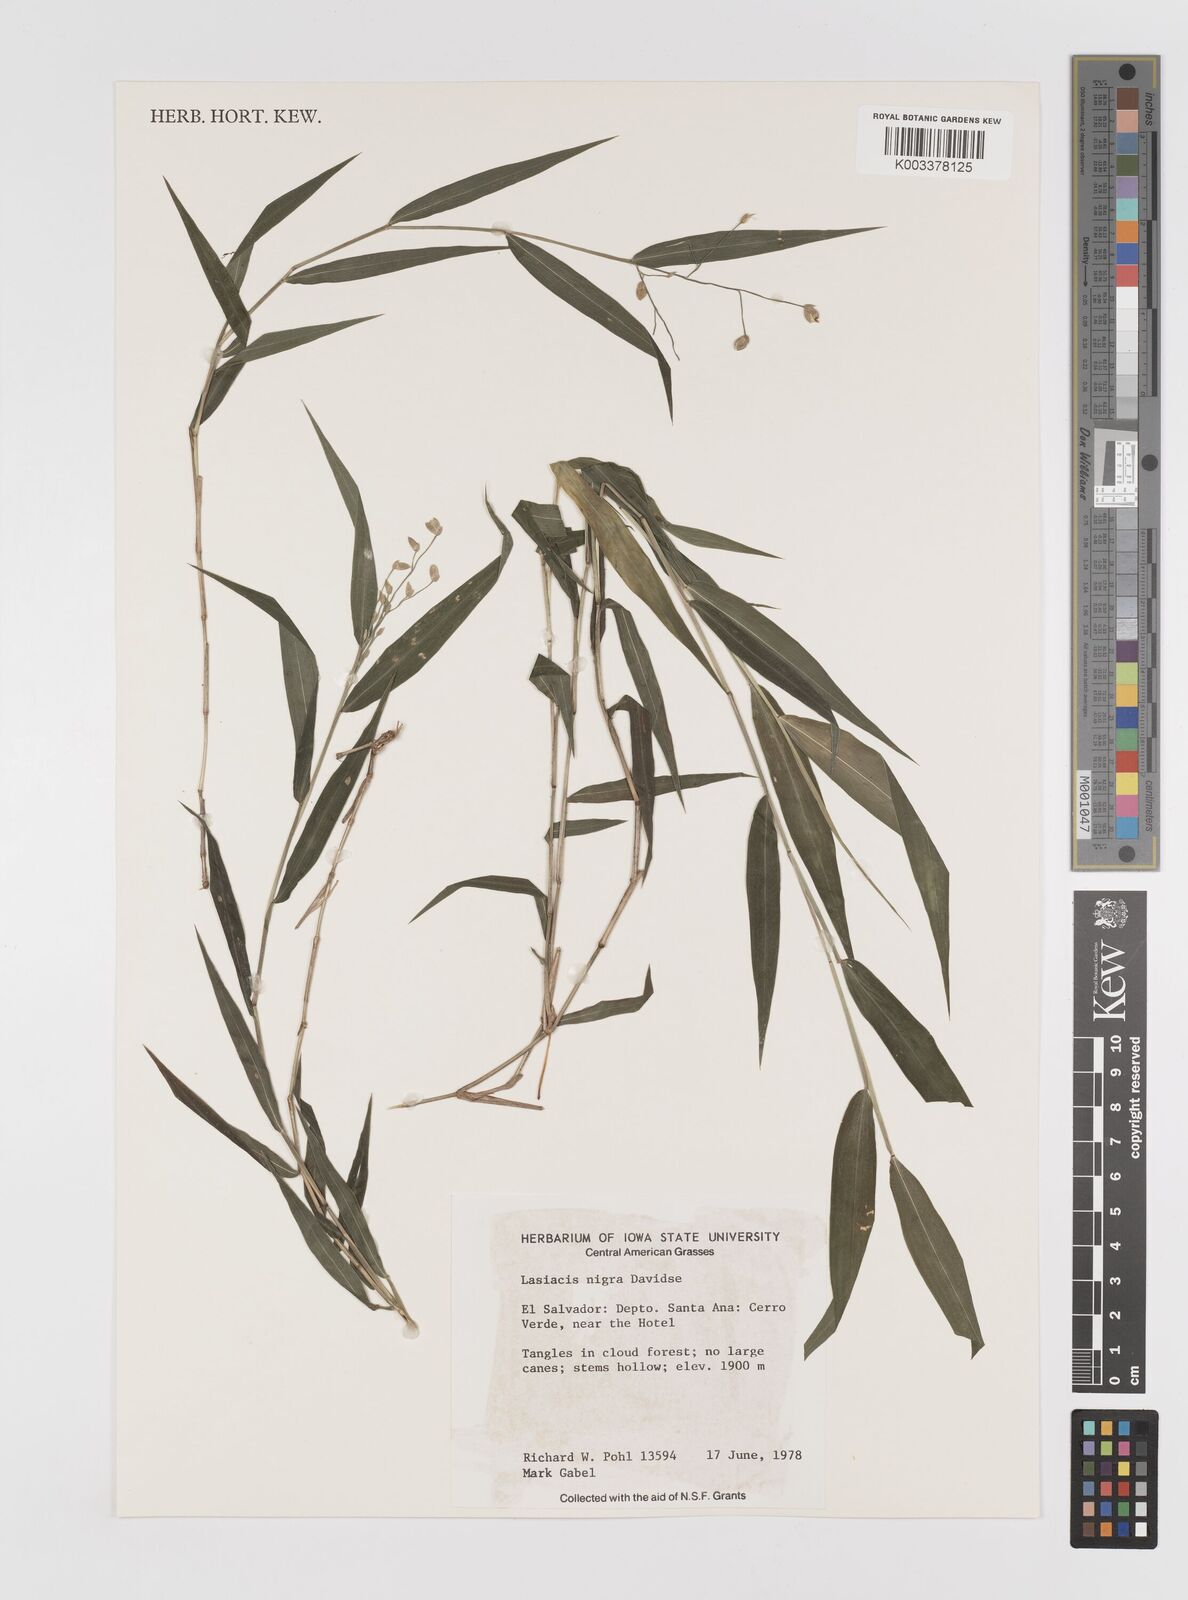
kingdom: Plantae
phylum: Tracheophyta
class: Liliopsida
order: Poales
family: Poaceae
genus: Lasiacis
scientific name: Lasiacis nigra
